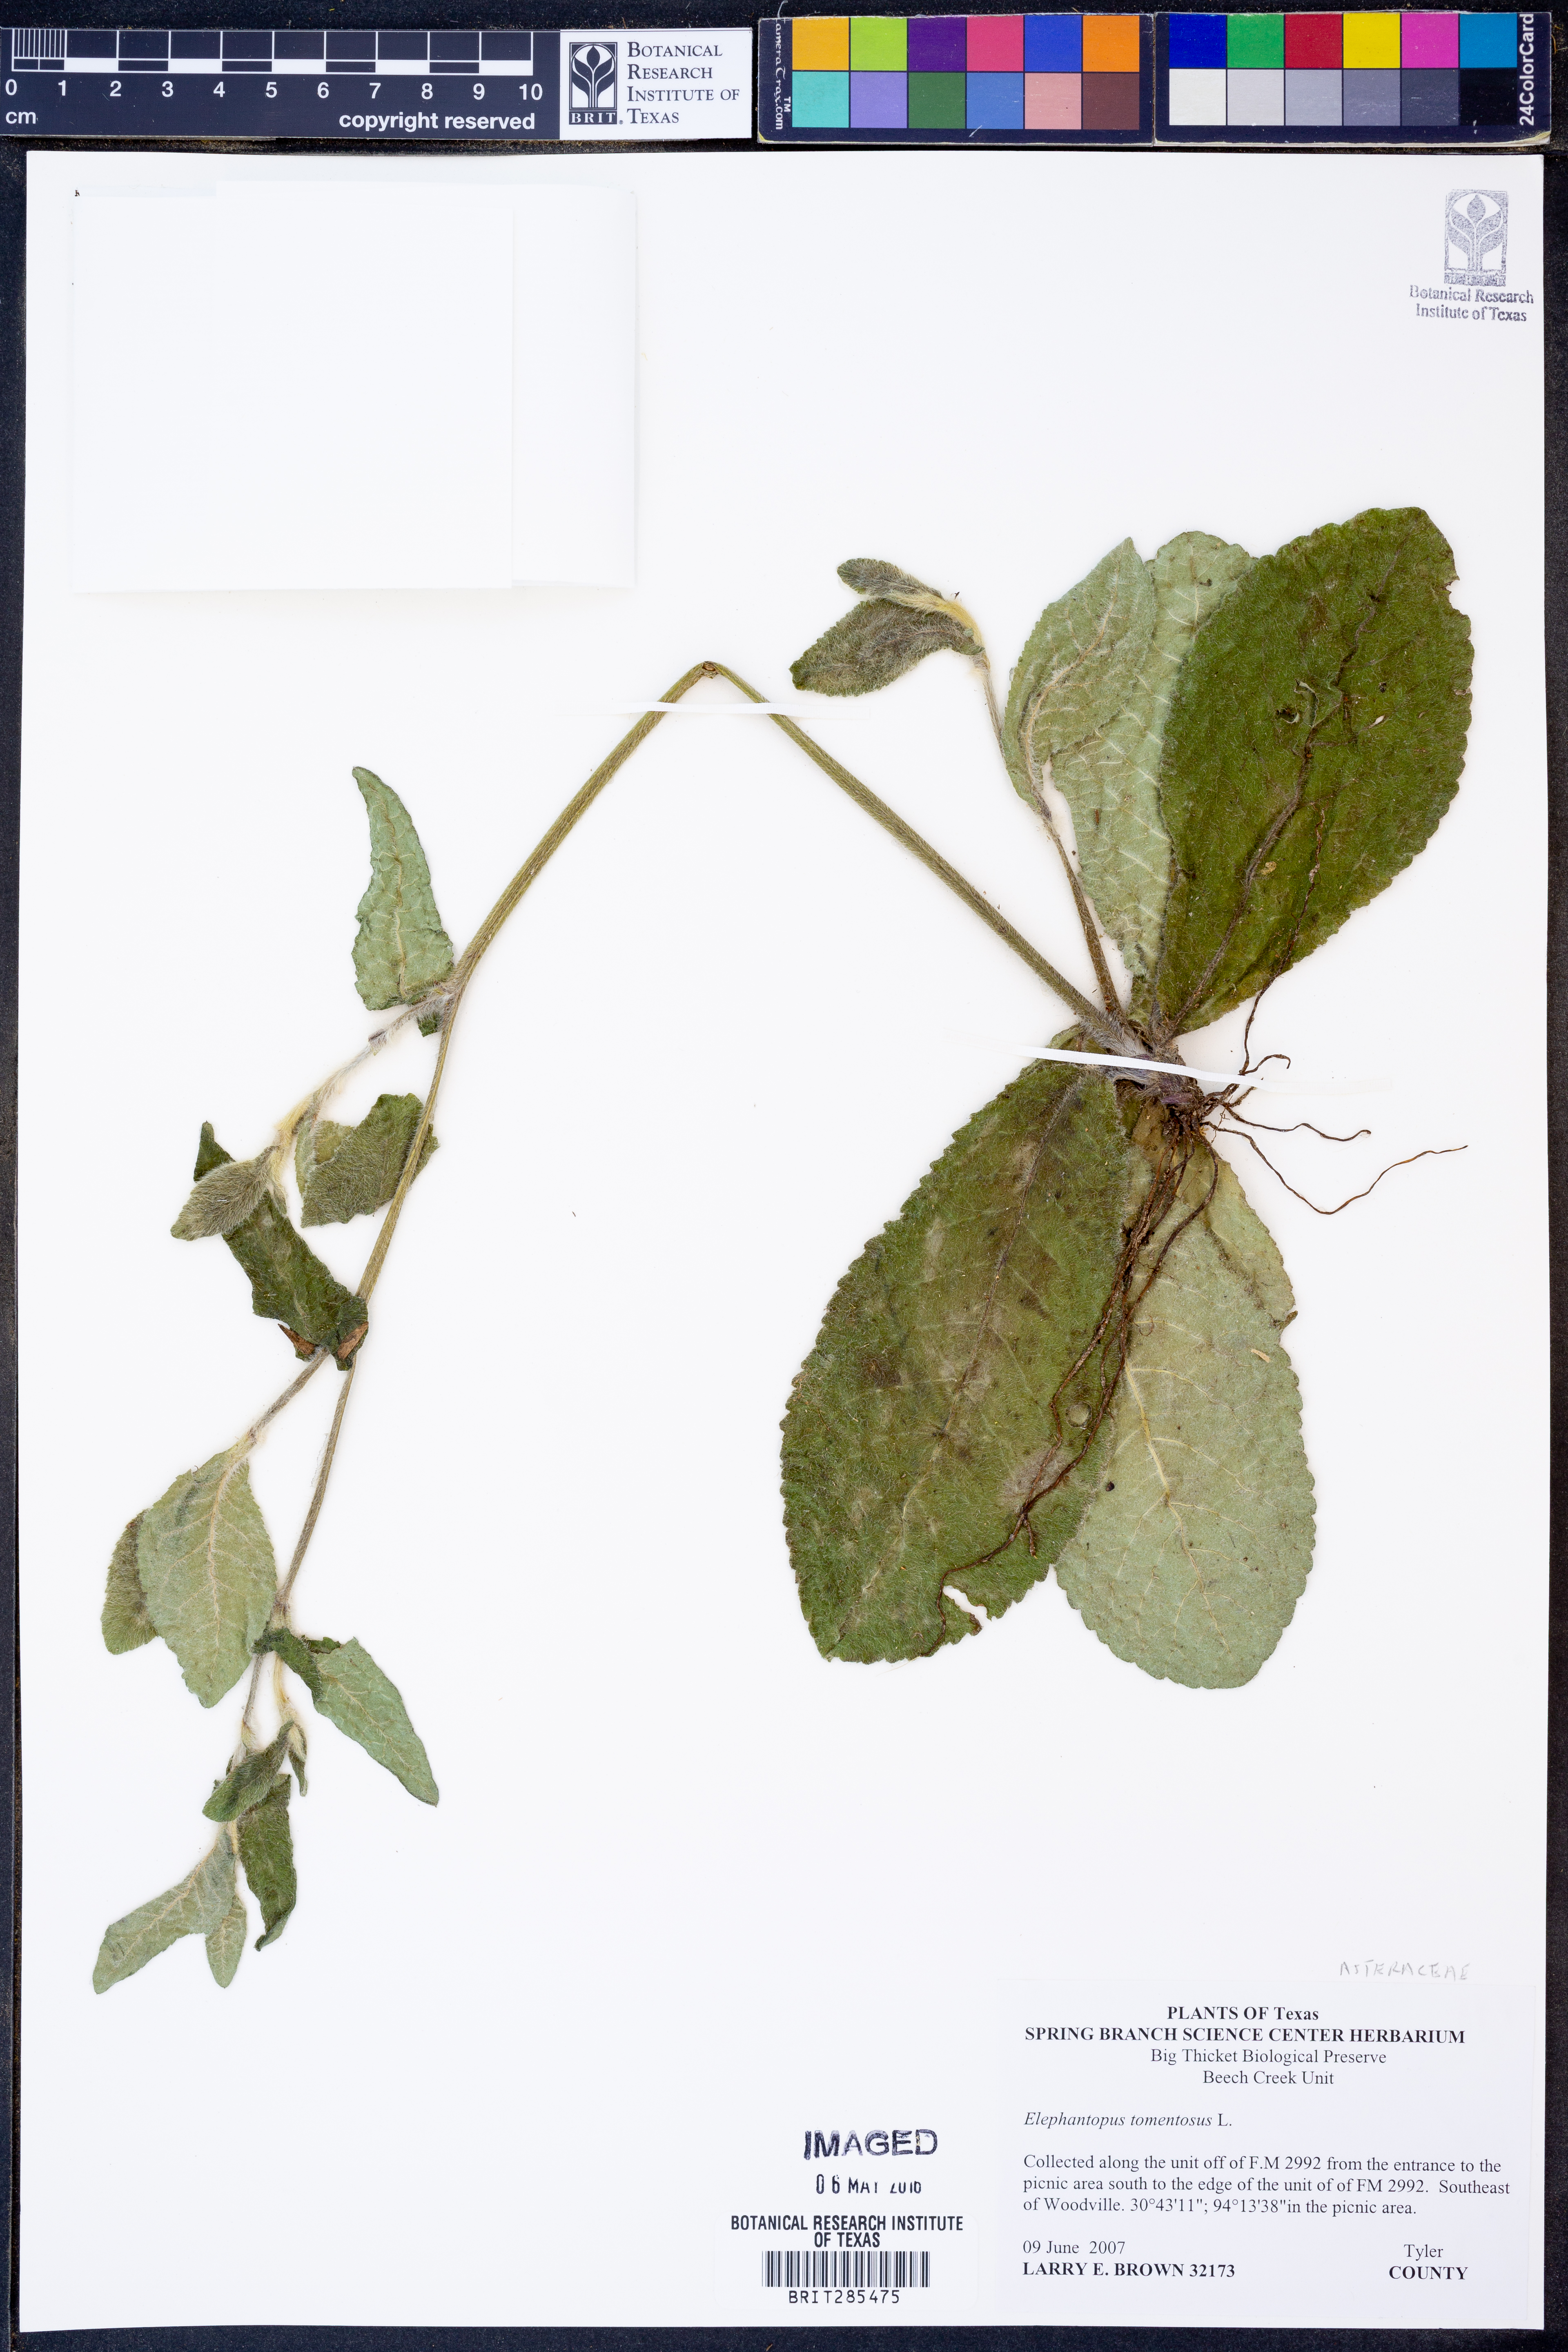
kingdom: Plantae
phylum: Tracheophyta
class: Magnoliopsida
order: Asterales
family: Asteraceae
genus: Elephantopus
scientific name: Elephantopus tomentosus
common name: Tobacco-weed
